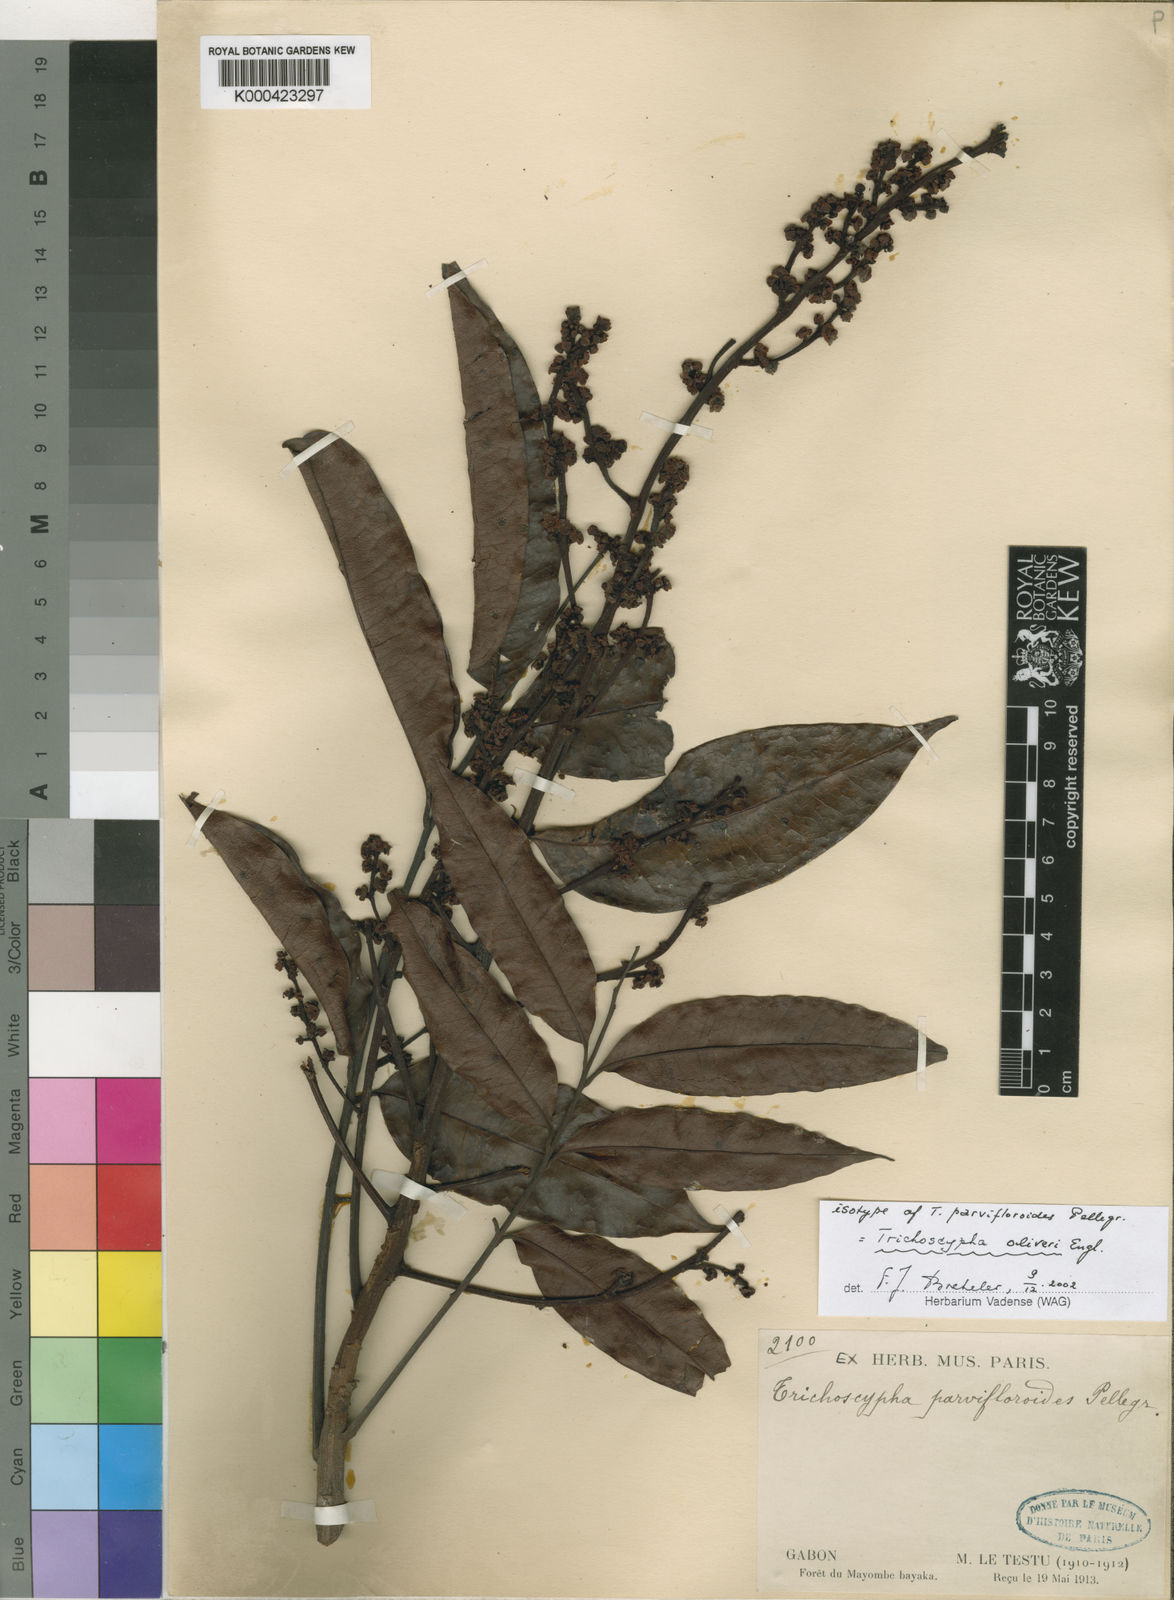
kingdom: Plantae
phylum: Tracheophyta
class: Magnoliopsida
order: Sapindales
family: Anacardiaceae
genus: Trichoscypha
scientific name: Trichoscypha oliveri
